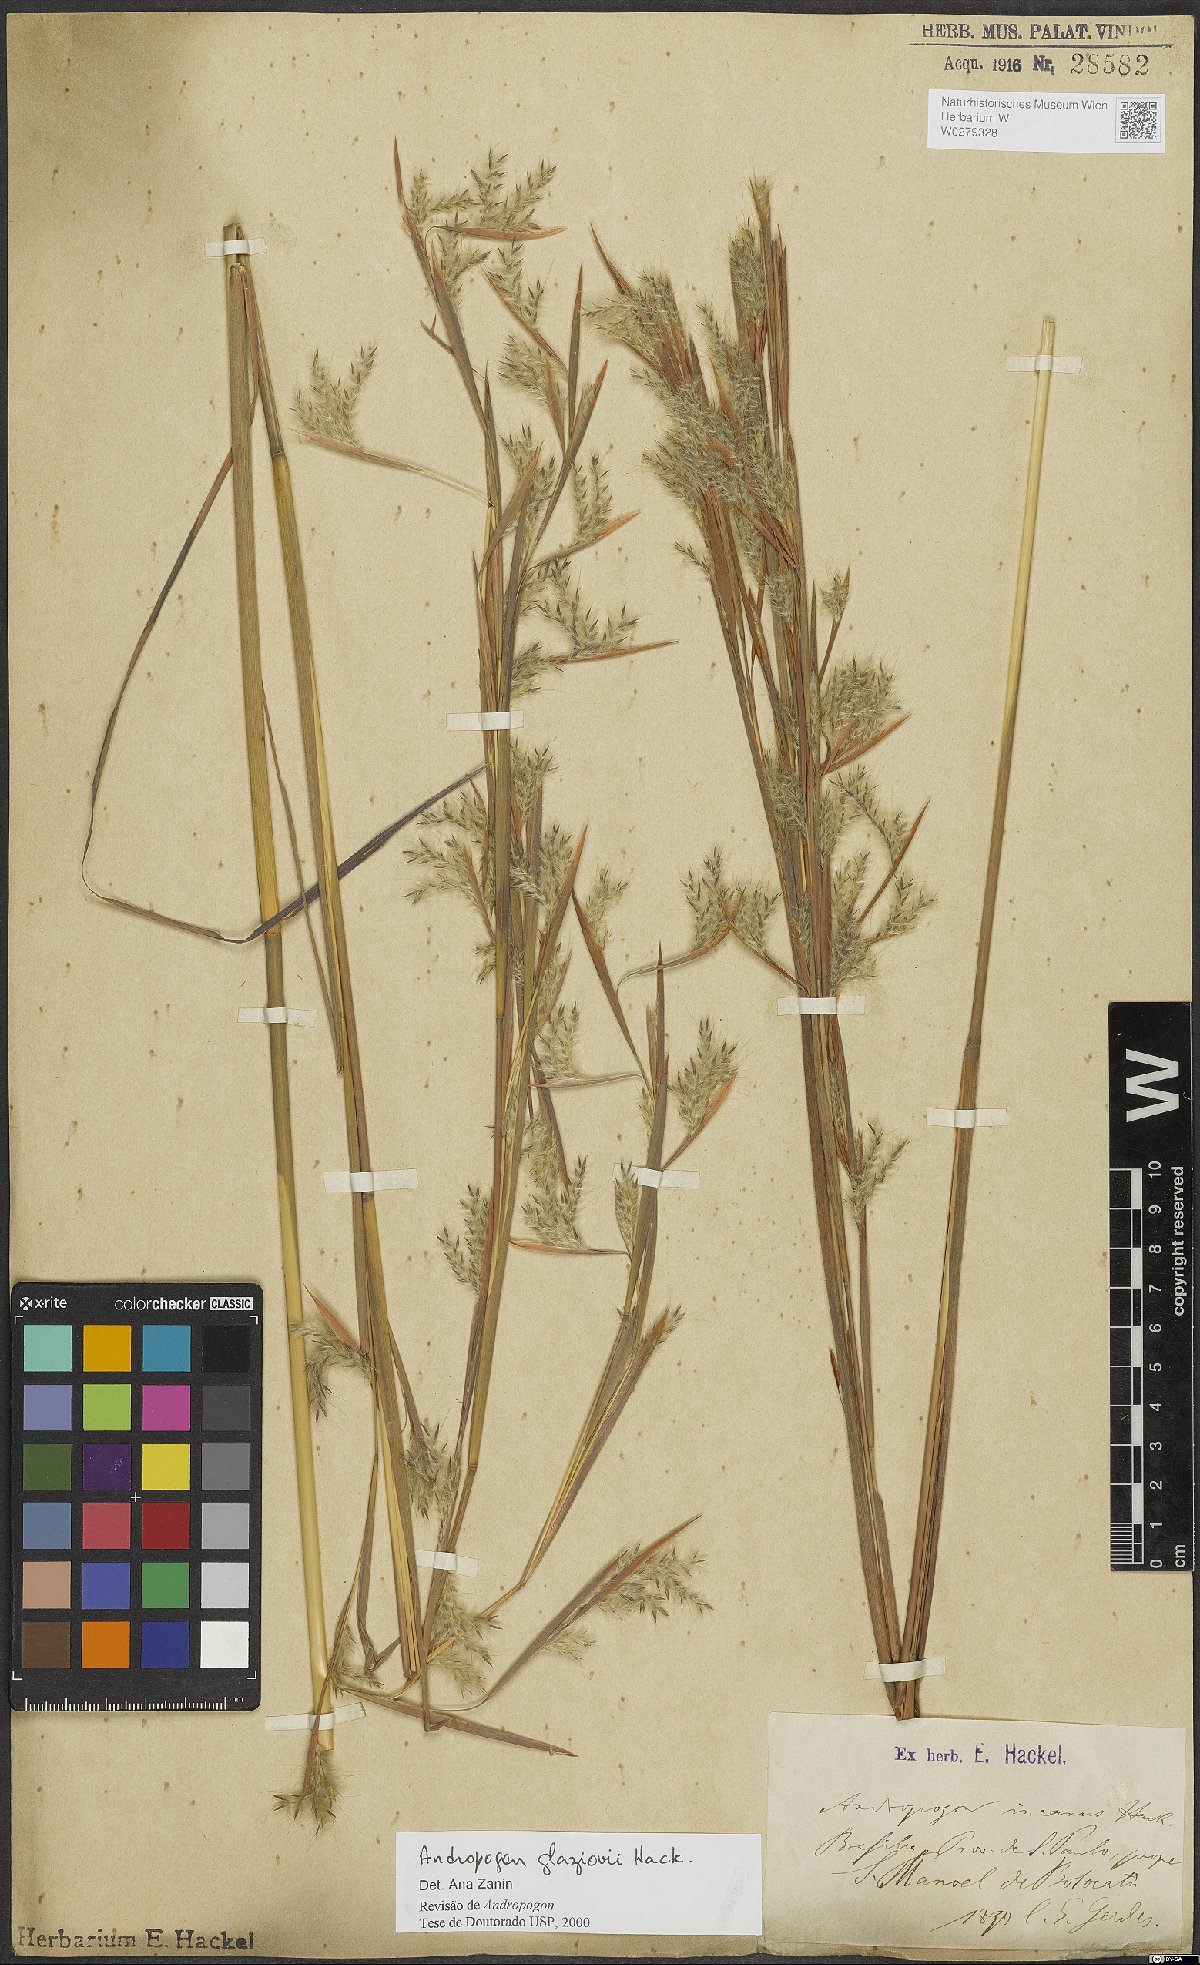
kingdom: Plantae
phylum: Tracheophyta
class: Liliopsida
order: Poales
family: Poaceae
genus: Andropogon
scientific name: Andropogon glaziovii
